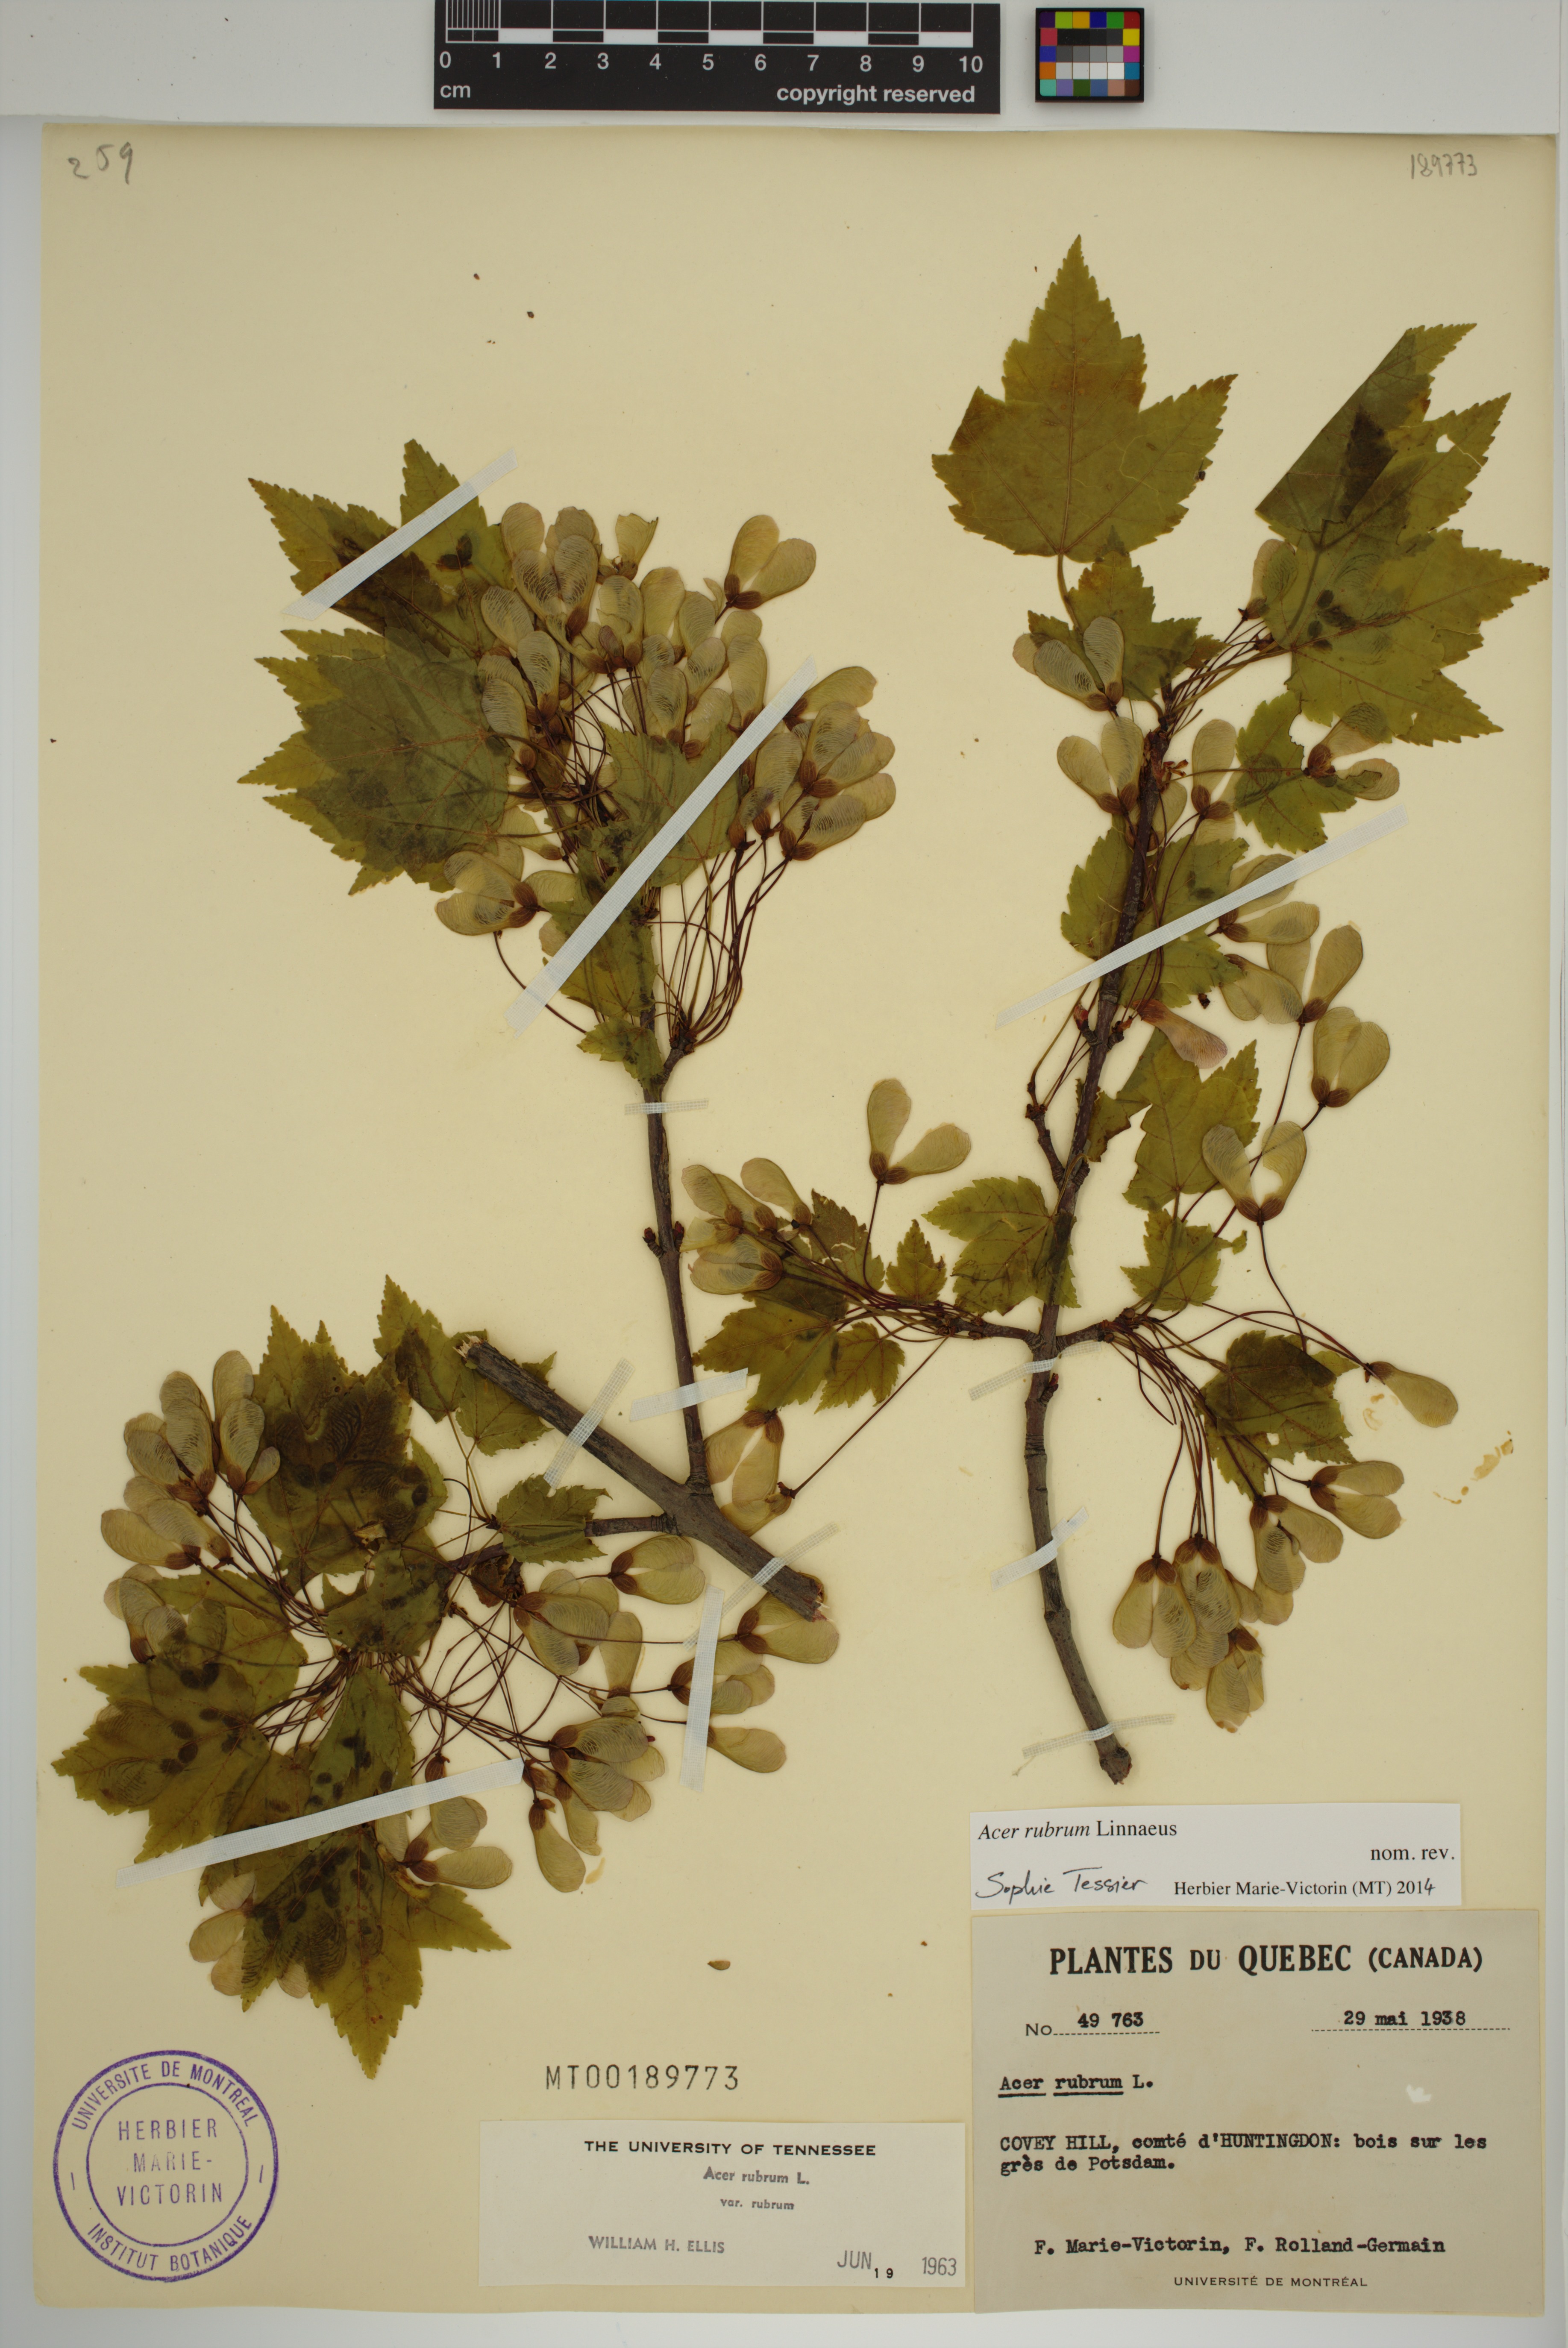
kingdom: Plantae
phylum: Tracheophyta
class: Magnoliopsida
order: Sapindales
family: Sapindaceae
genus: Acer
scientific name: Acer rubrum
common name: Red maple
